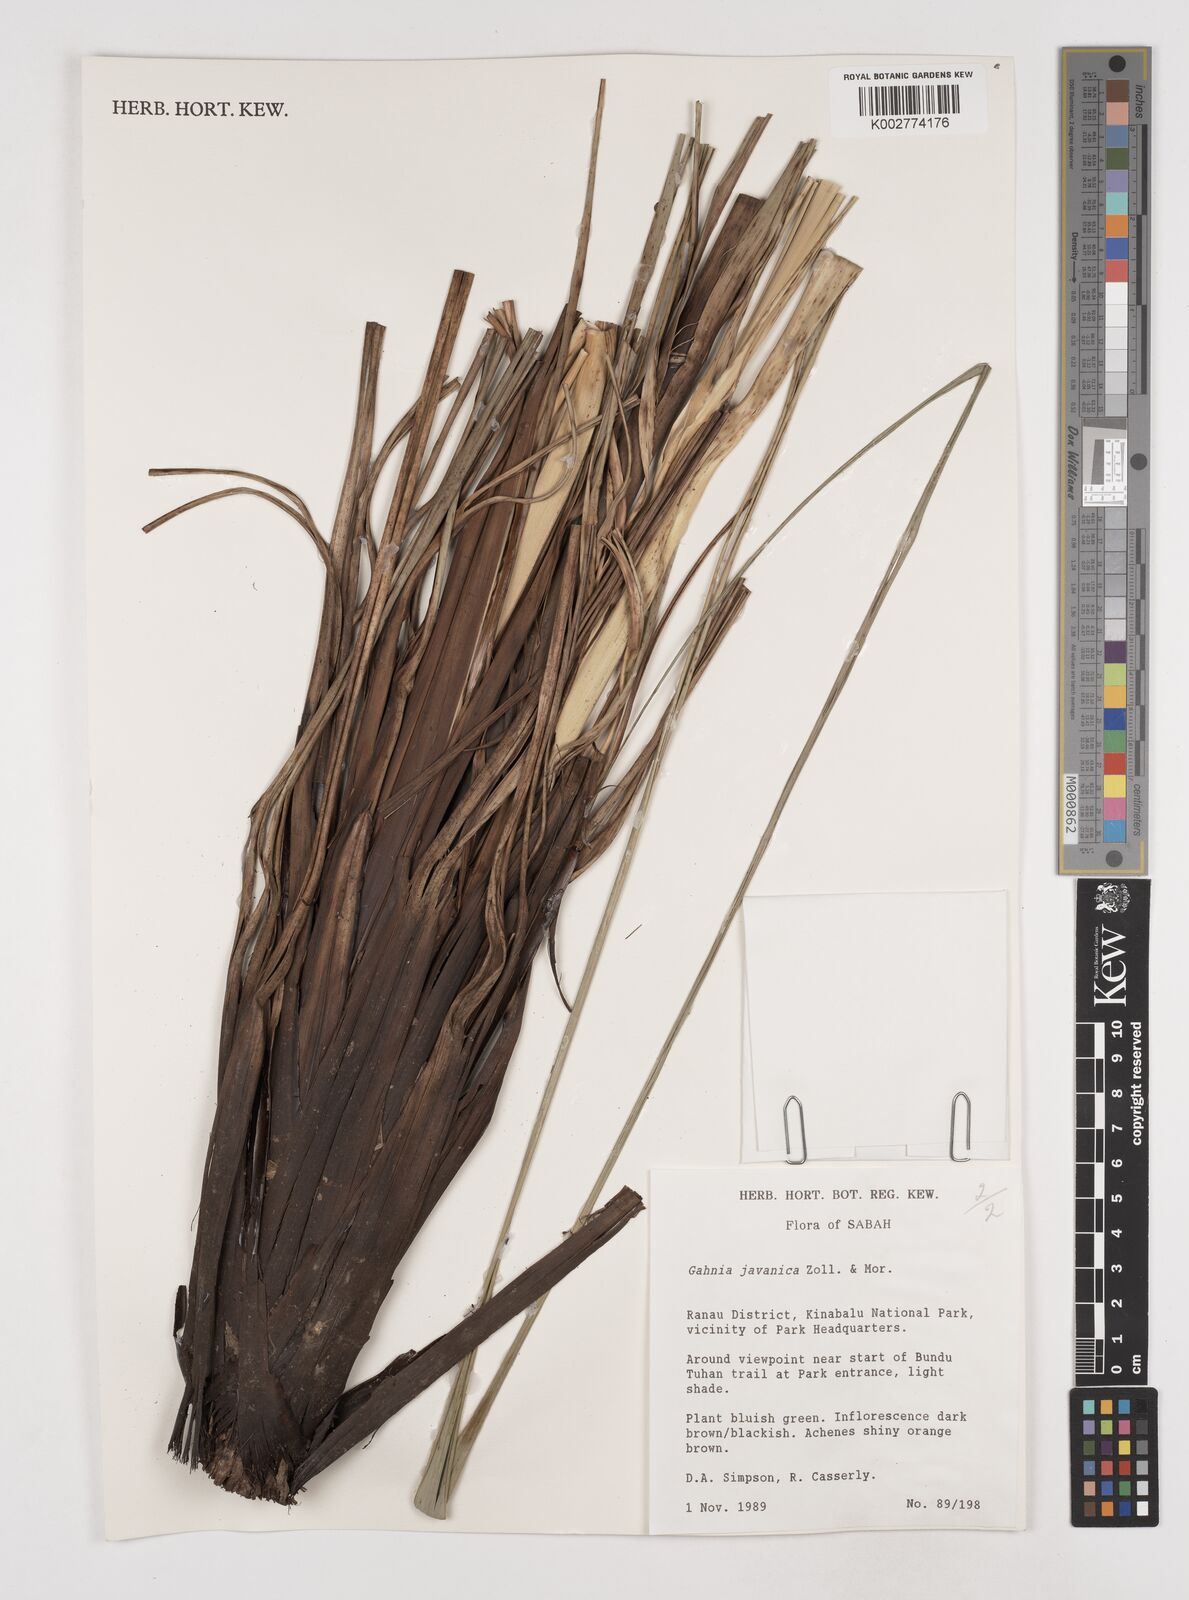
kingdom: Plantae
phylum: Tracheophyta
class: Liliopsida
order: Poales
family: Cyperaceae
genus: Gahnia
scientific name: Gahnia javanica
